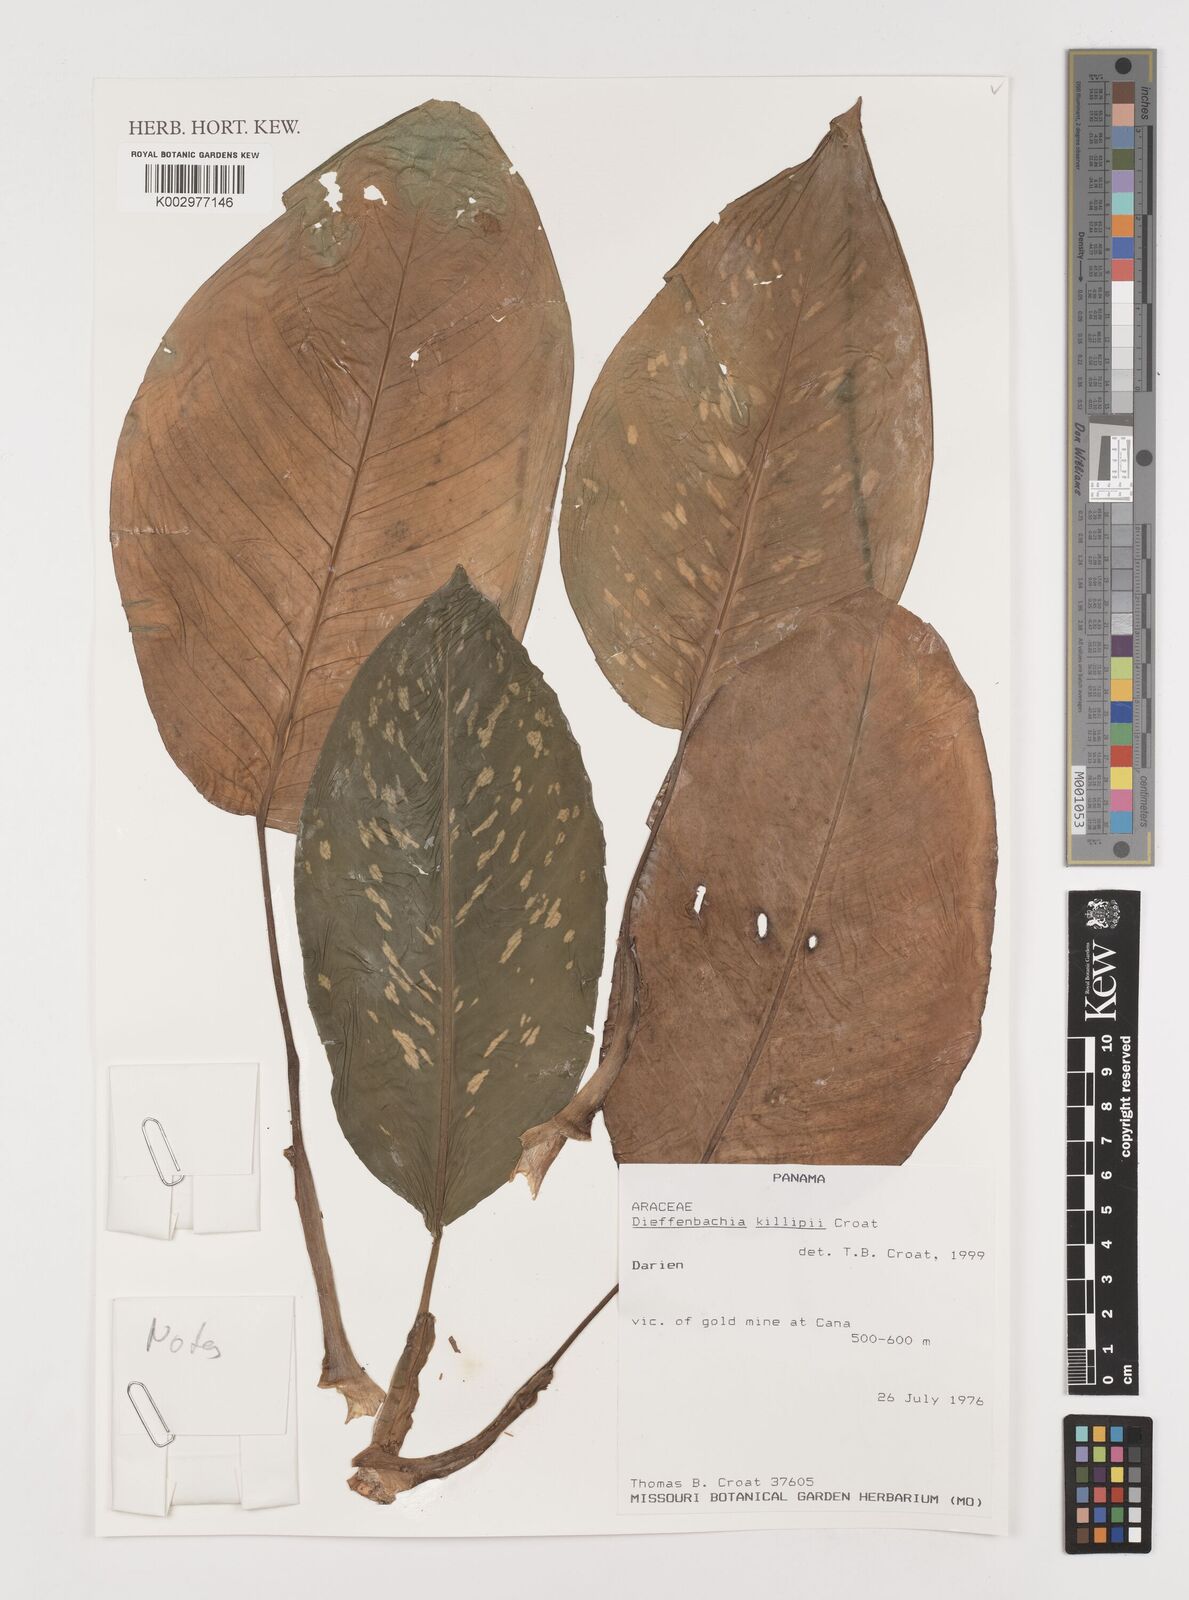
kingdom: Plantae
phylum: Tracheophyta
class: Liliopsida
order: Alismatales
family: Araceae
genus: Dieffenbachia
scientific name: Dieffenbachia killipii
